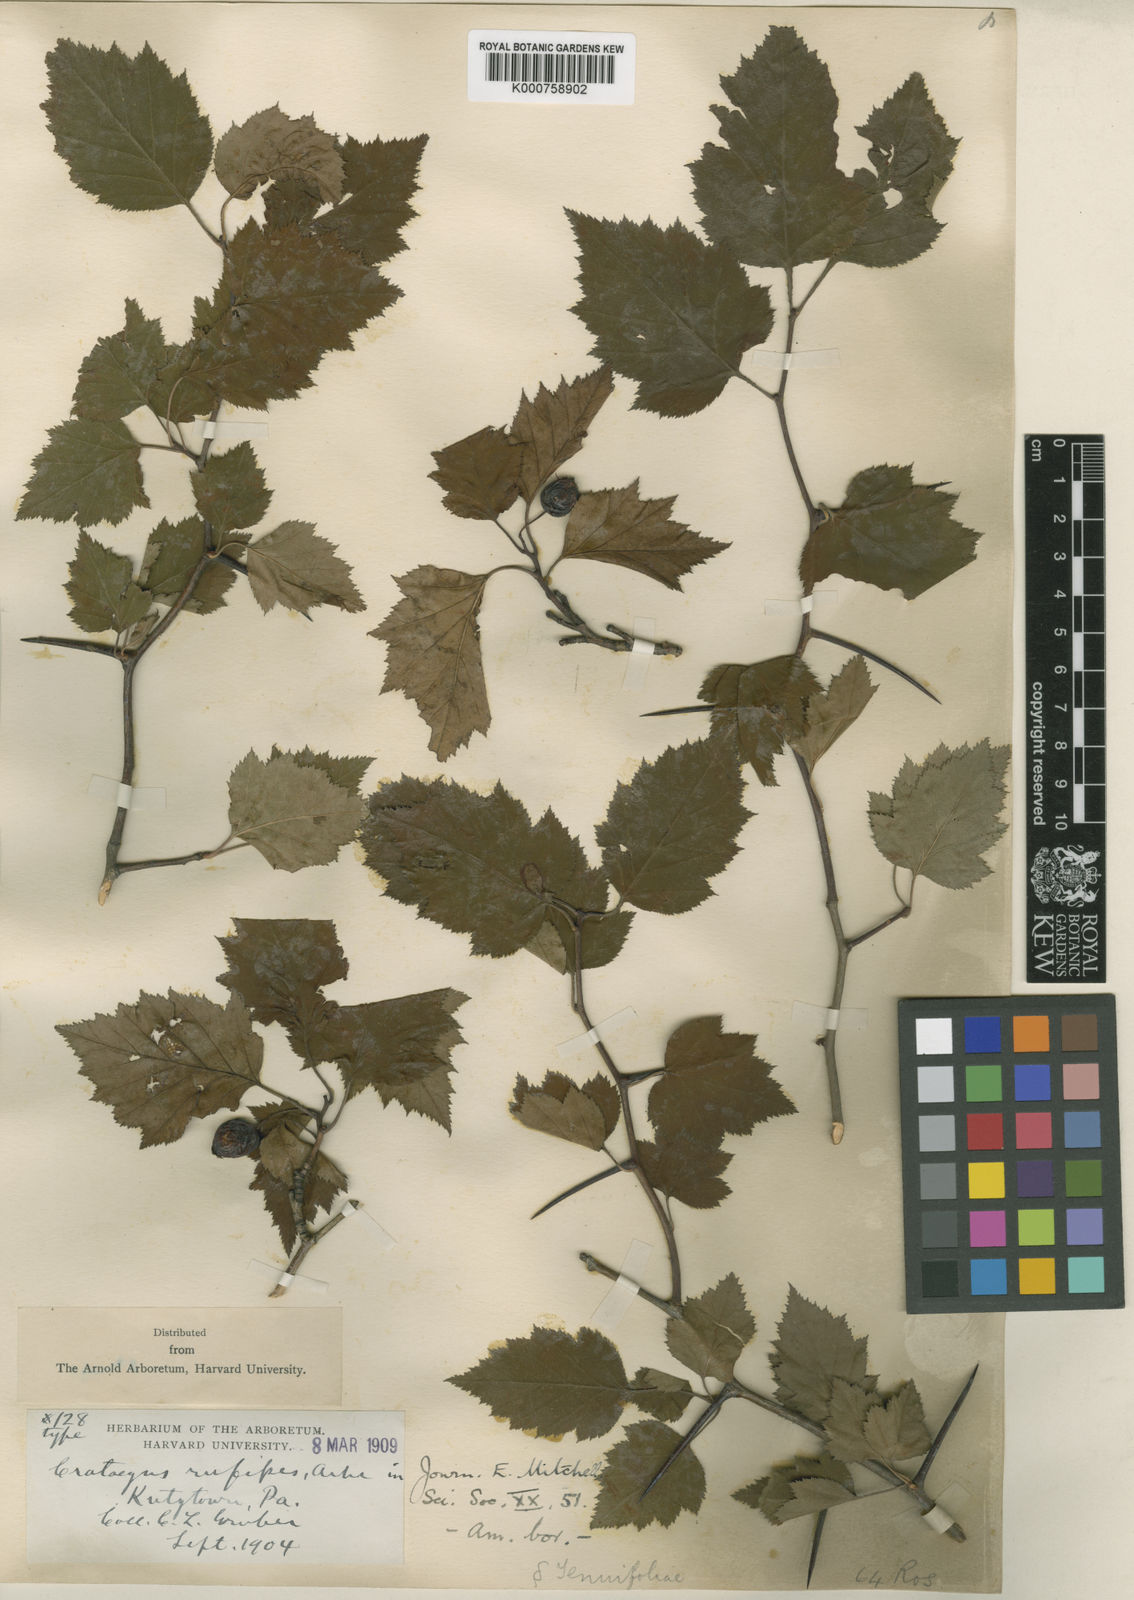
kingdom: Plantae
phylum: Tracheophyta
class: Magnoliopsida
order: Rosales
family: Rosaceae
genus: Crataegus
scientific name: Crataegus rufipes
